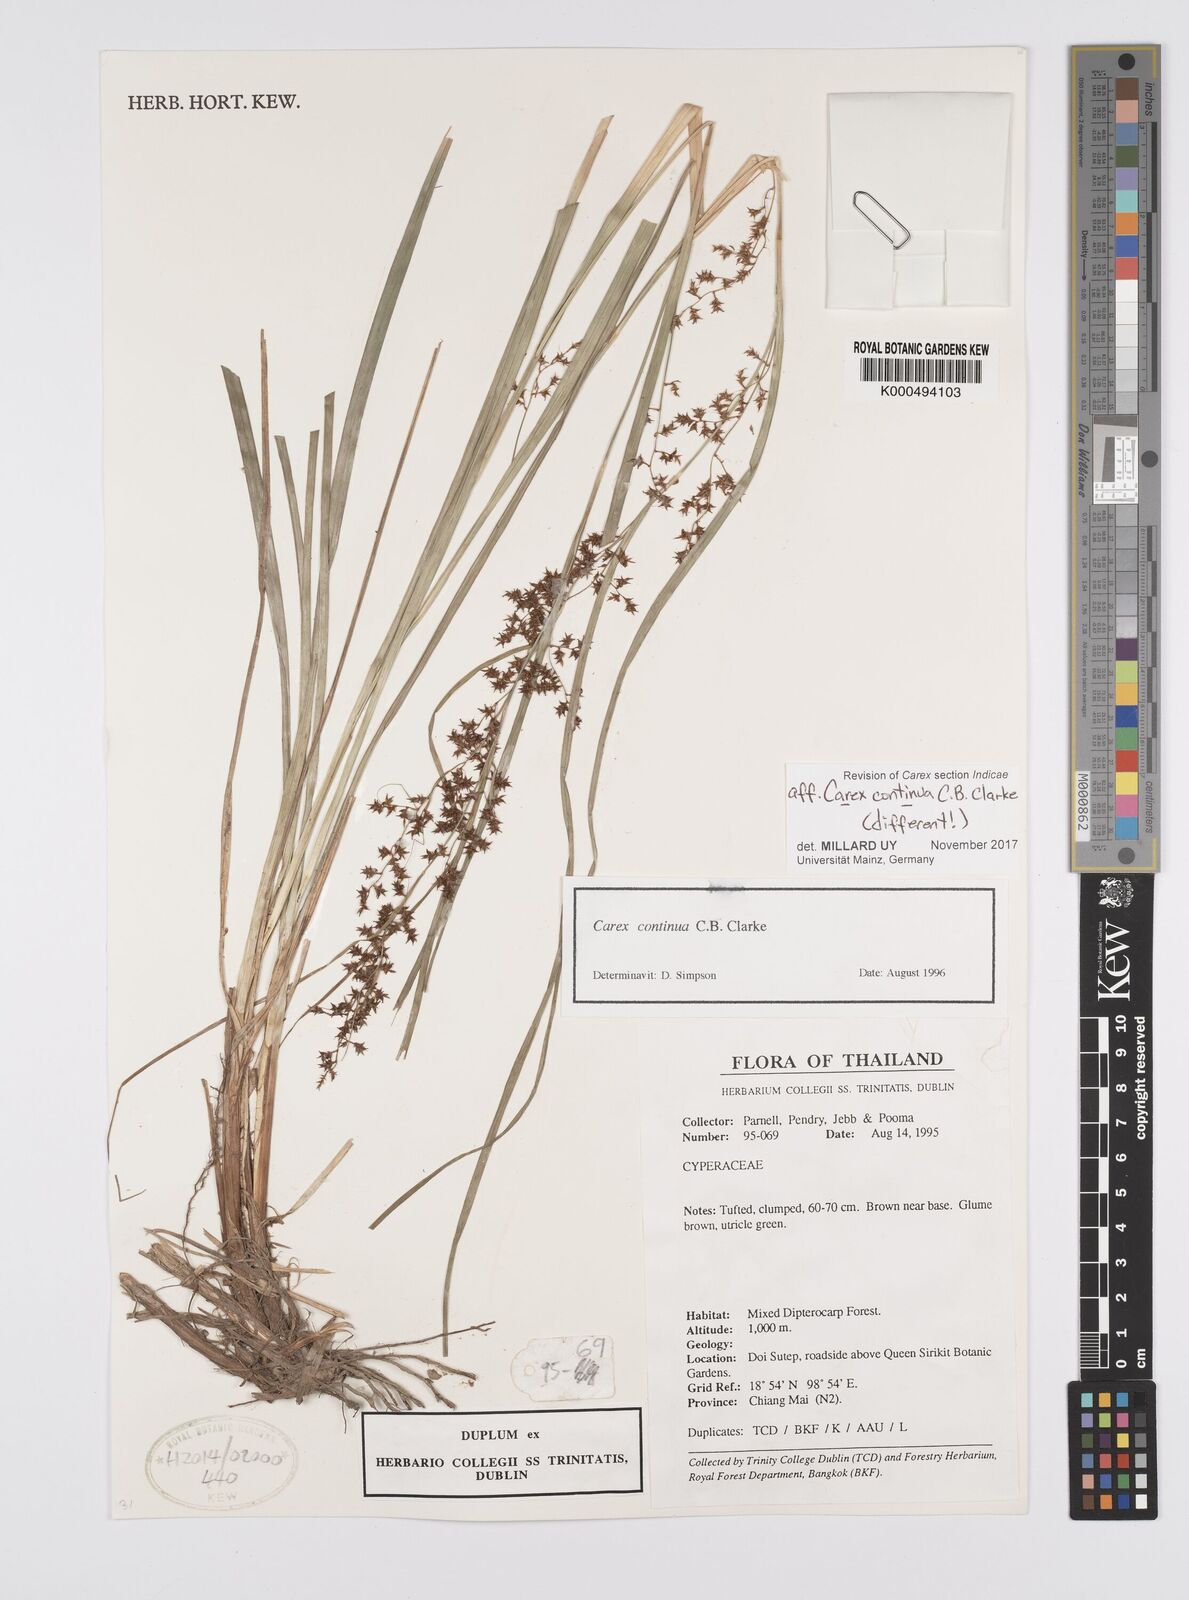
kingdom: Plantae
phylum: Tracheophyta
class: Liliopsida
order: Poales
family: Cyperaceae
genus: Carex
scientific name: Carex continua
